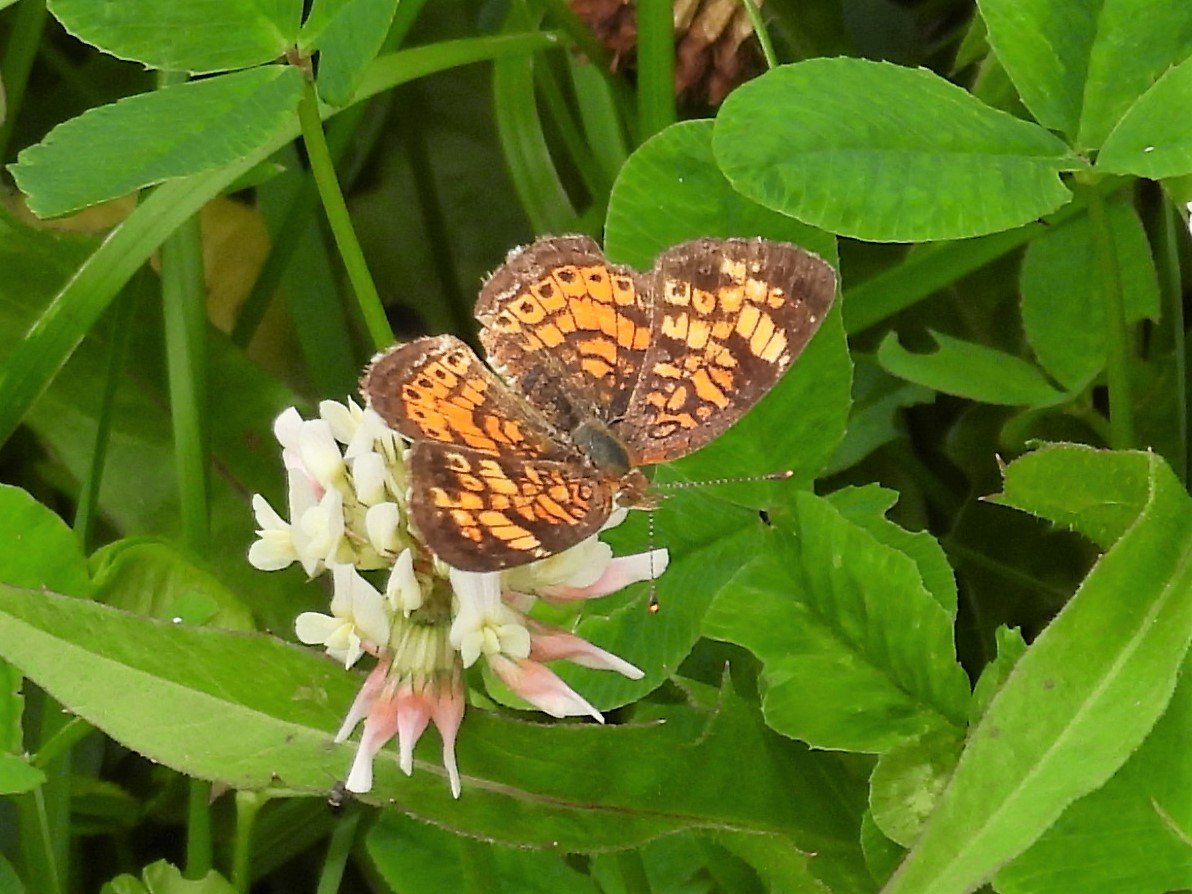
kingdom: Animalia
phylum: Arthropoda
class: Insecta
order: Lepidoptera
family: Nymphalidae
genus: Phyciodes
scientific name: Phyciodes tharos
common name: Northern Crescent
